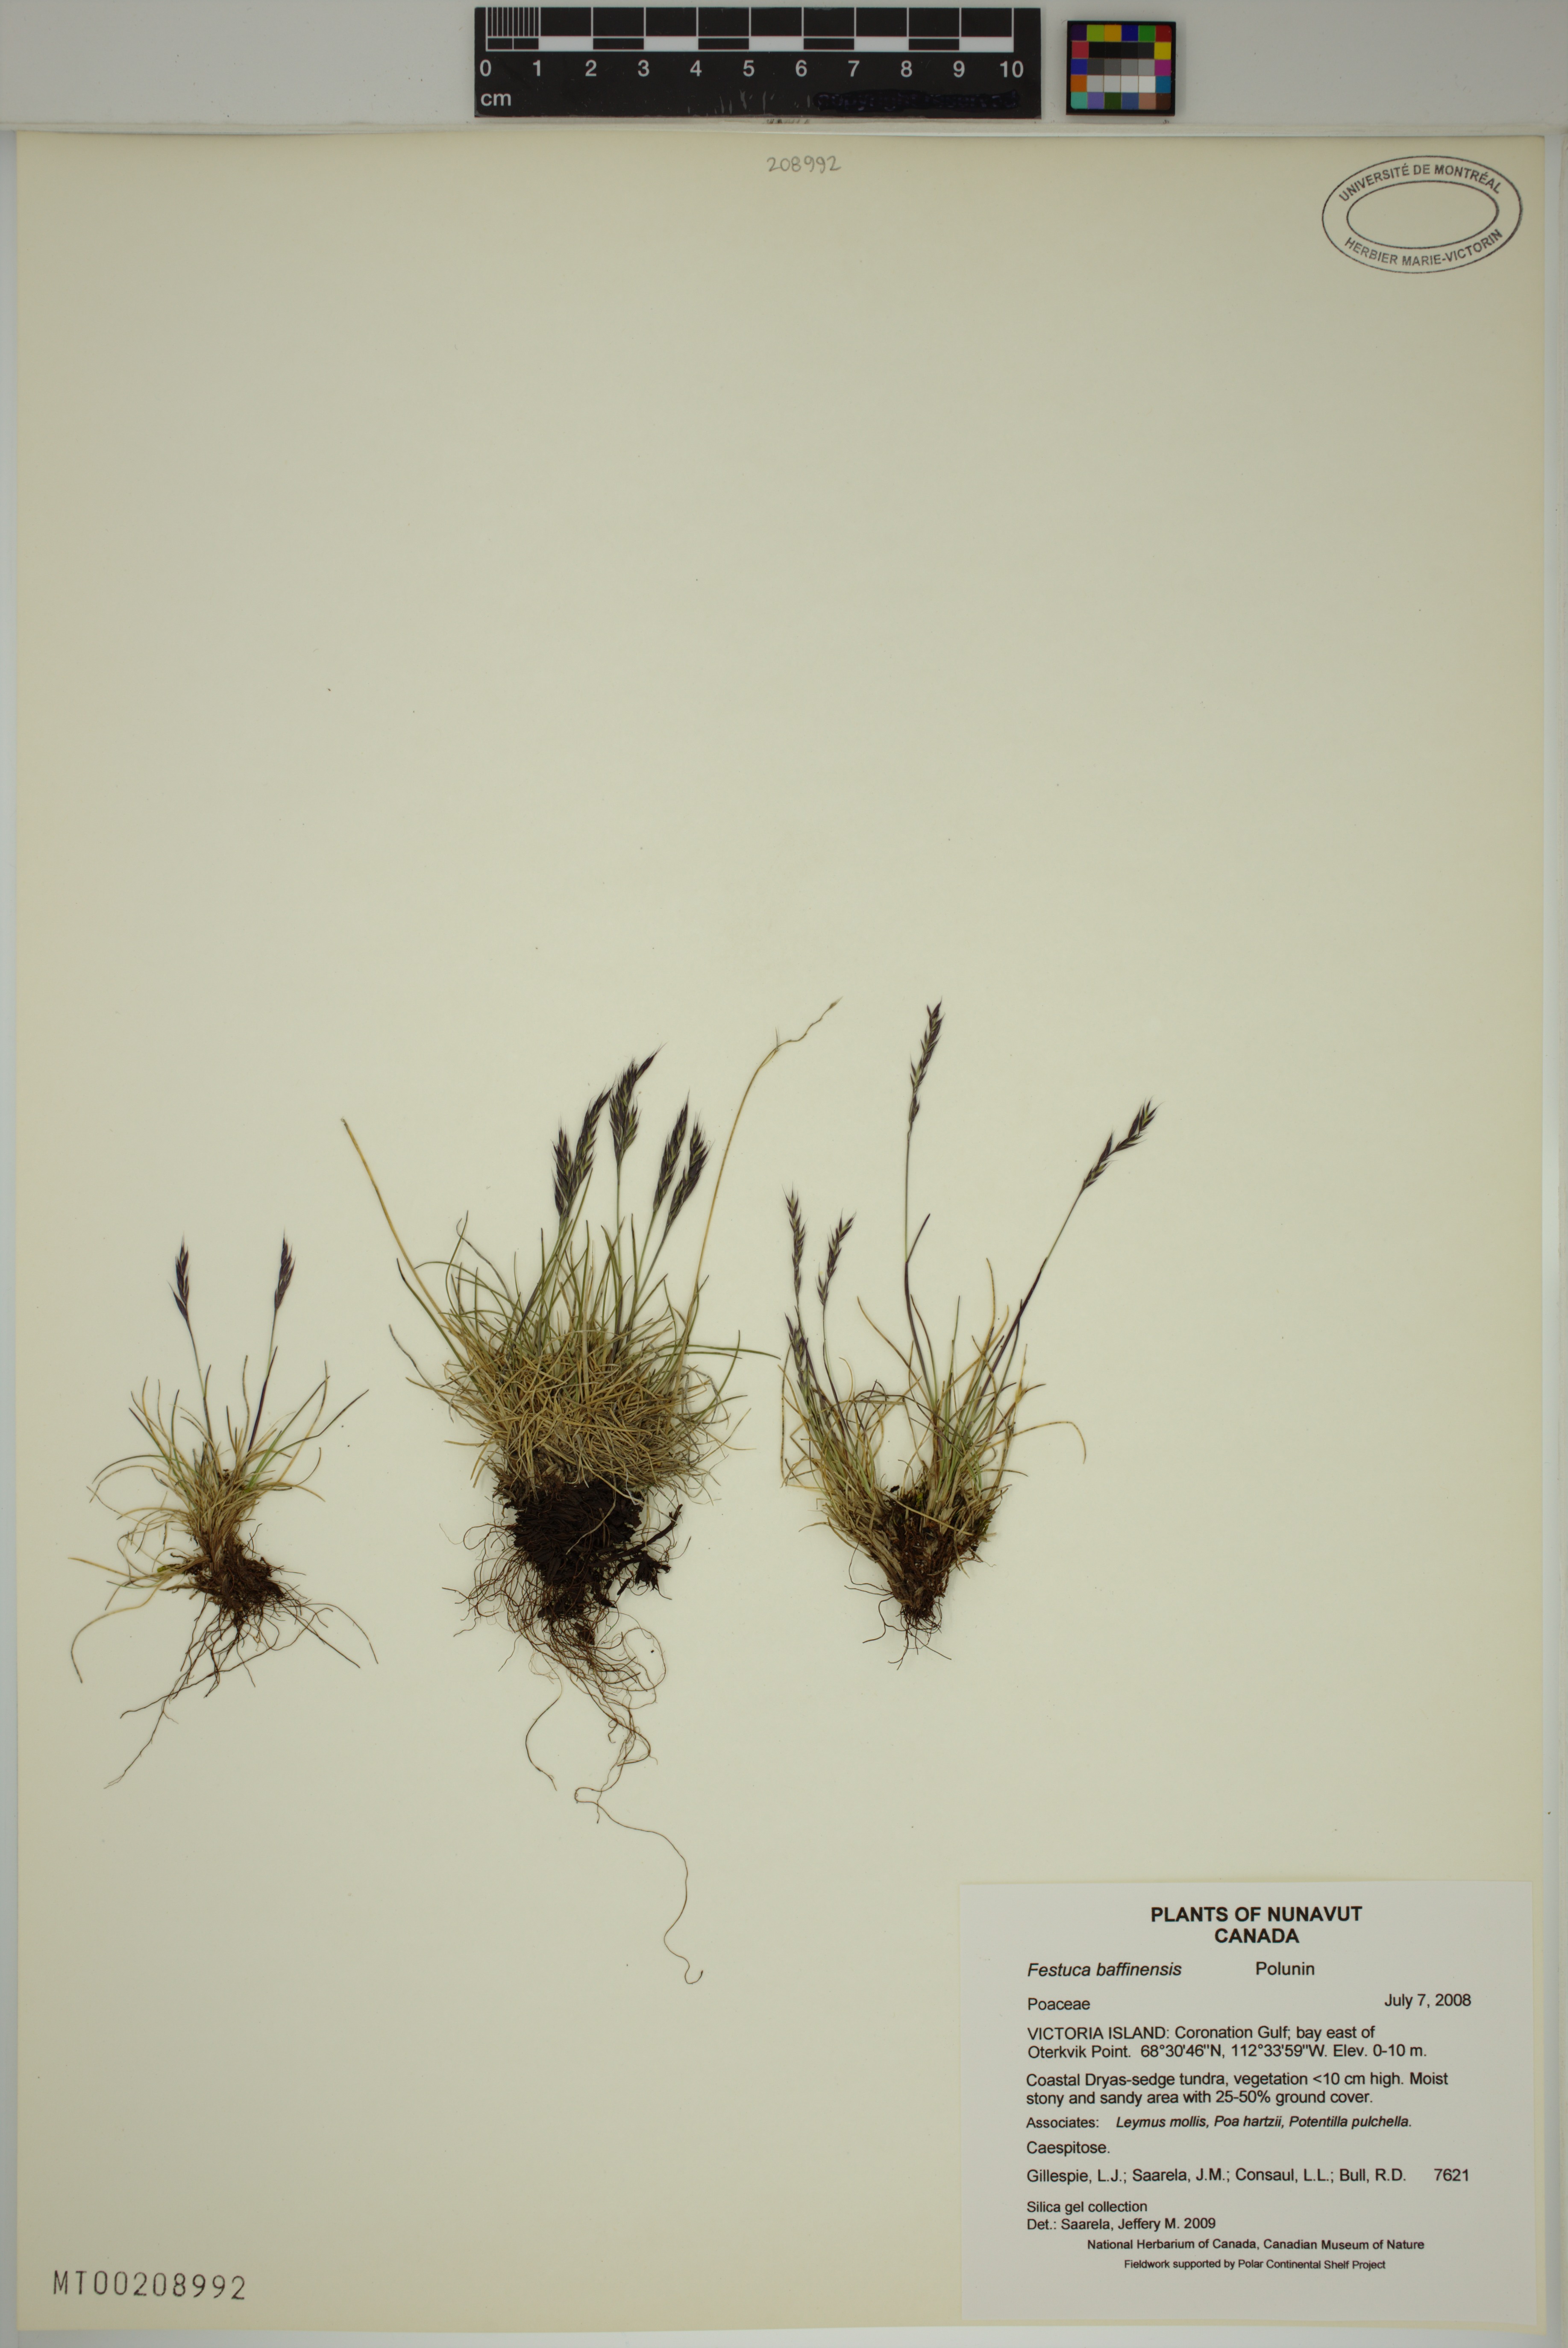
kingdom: Plantae
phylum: Tracheophyta
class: Liliopsida
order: Poales
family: Poaceae
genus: Festuca
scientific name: Festuca baffinensis
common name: Baffin island fescue
